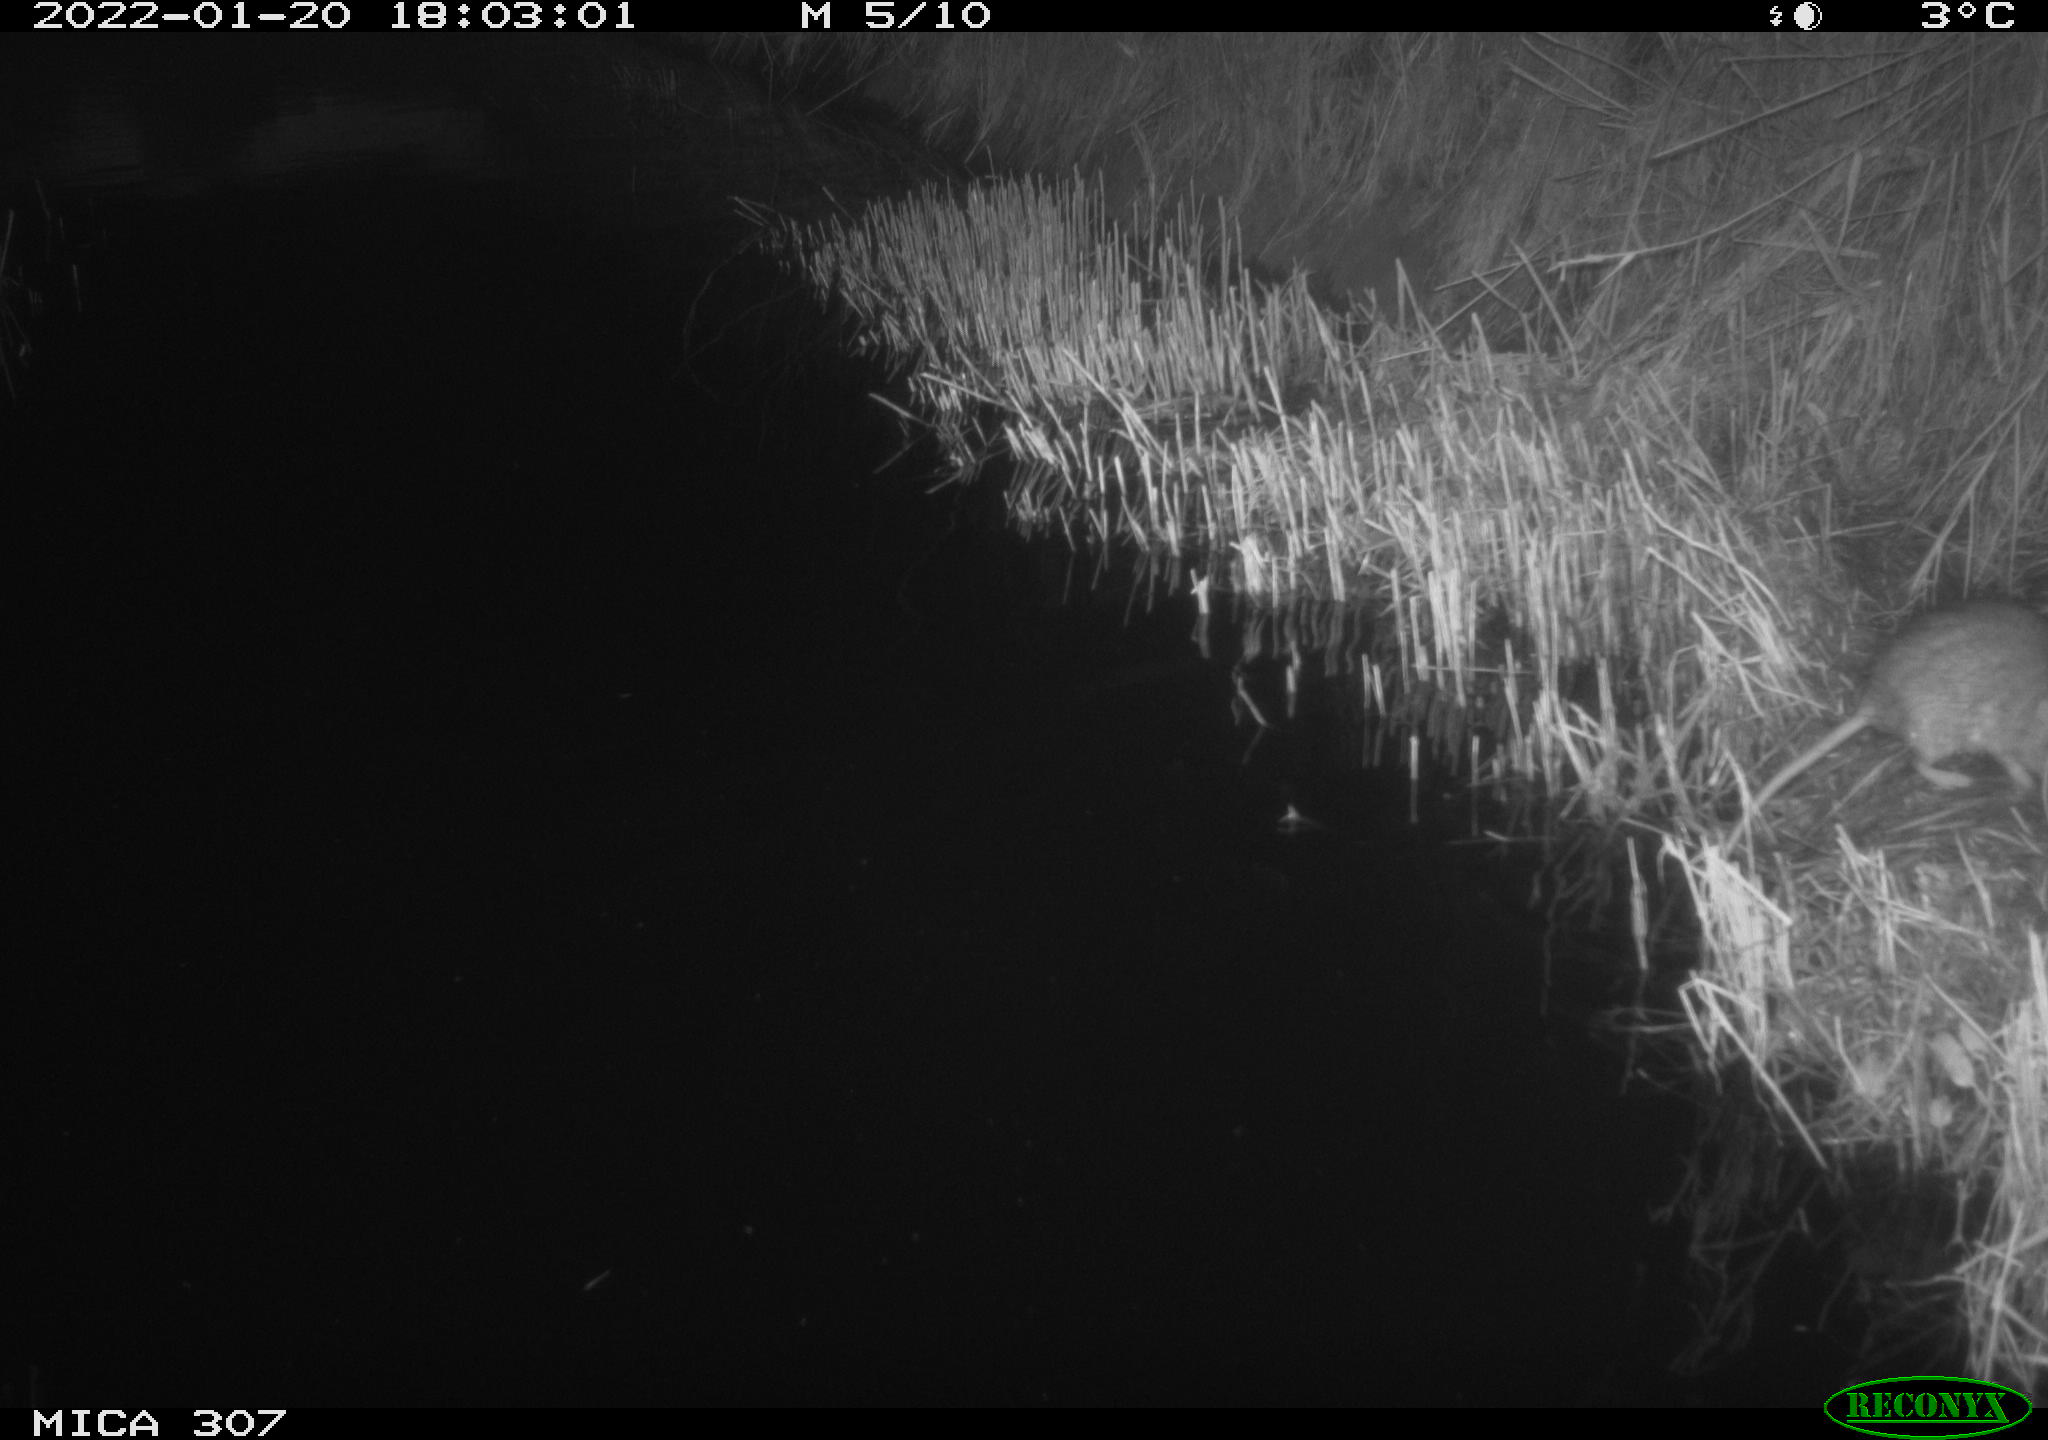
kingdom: Animalia
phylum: Chordata
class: Mammalia
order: Rodentia
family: Muridae
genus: Rattus
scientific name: Rattus norvegicus
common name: Brown rat
